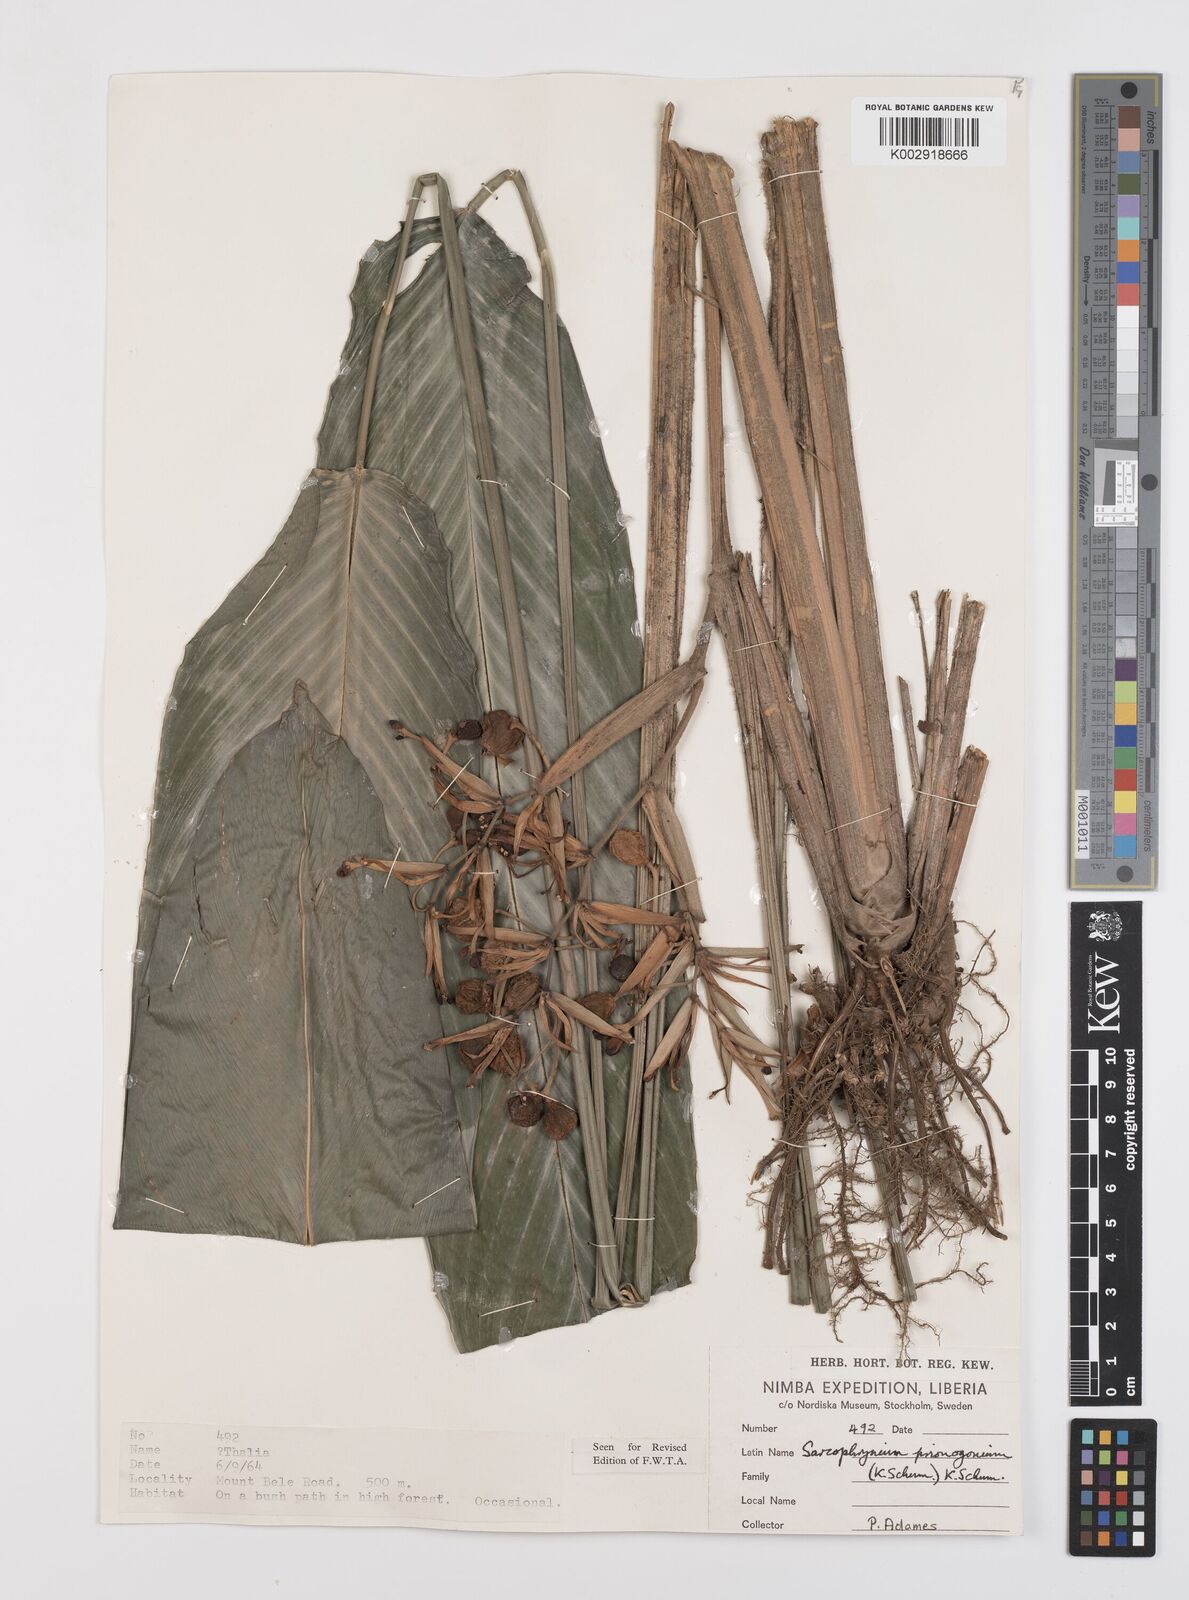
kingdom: Plantae
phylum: Tracheophyta
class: Liliopsida
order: Zingiberales
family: Marantaceae
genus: Sarcophrynium
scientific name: Sarcophrynium prionogonium
